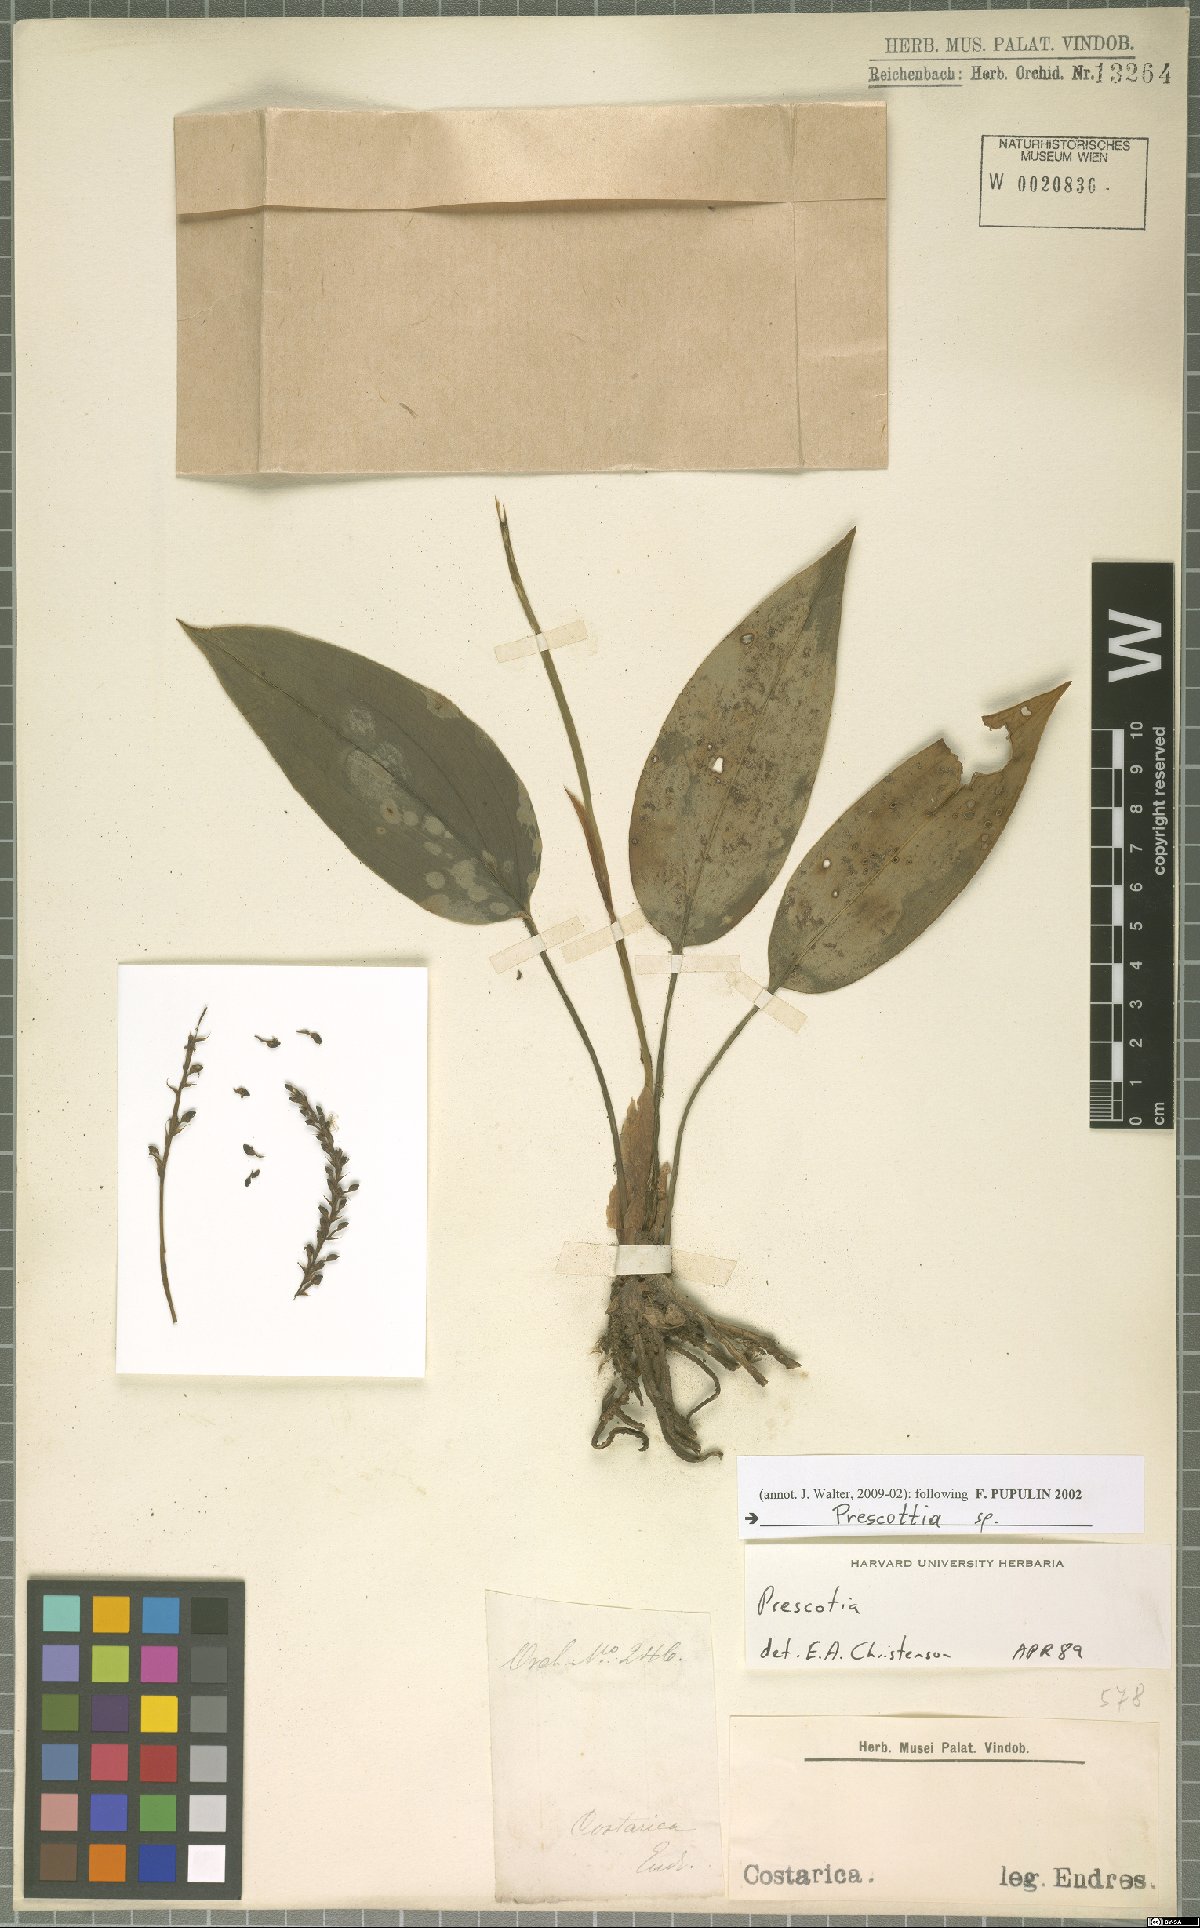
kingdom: Plantae
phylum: Tracheophyta
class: Liliopsida
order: Asparagales
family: Orchidaceae
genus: Prescottia
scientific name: Prescottia
